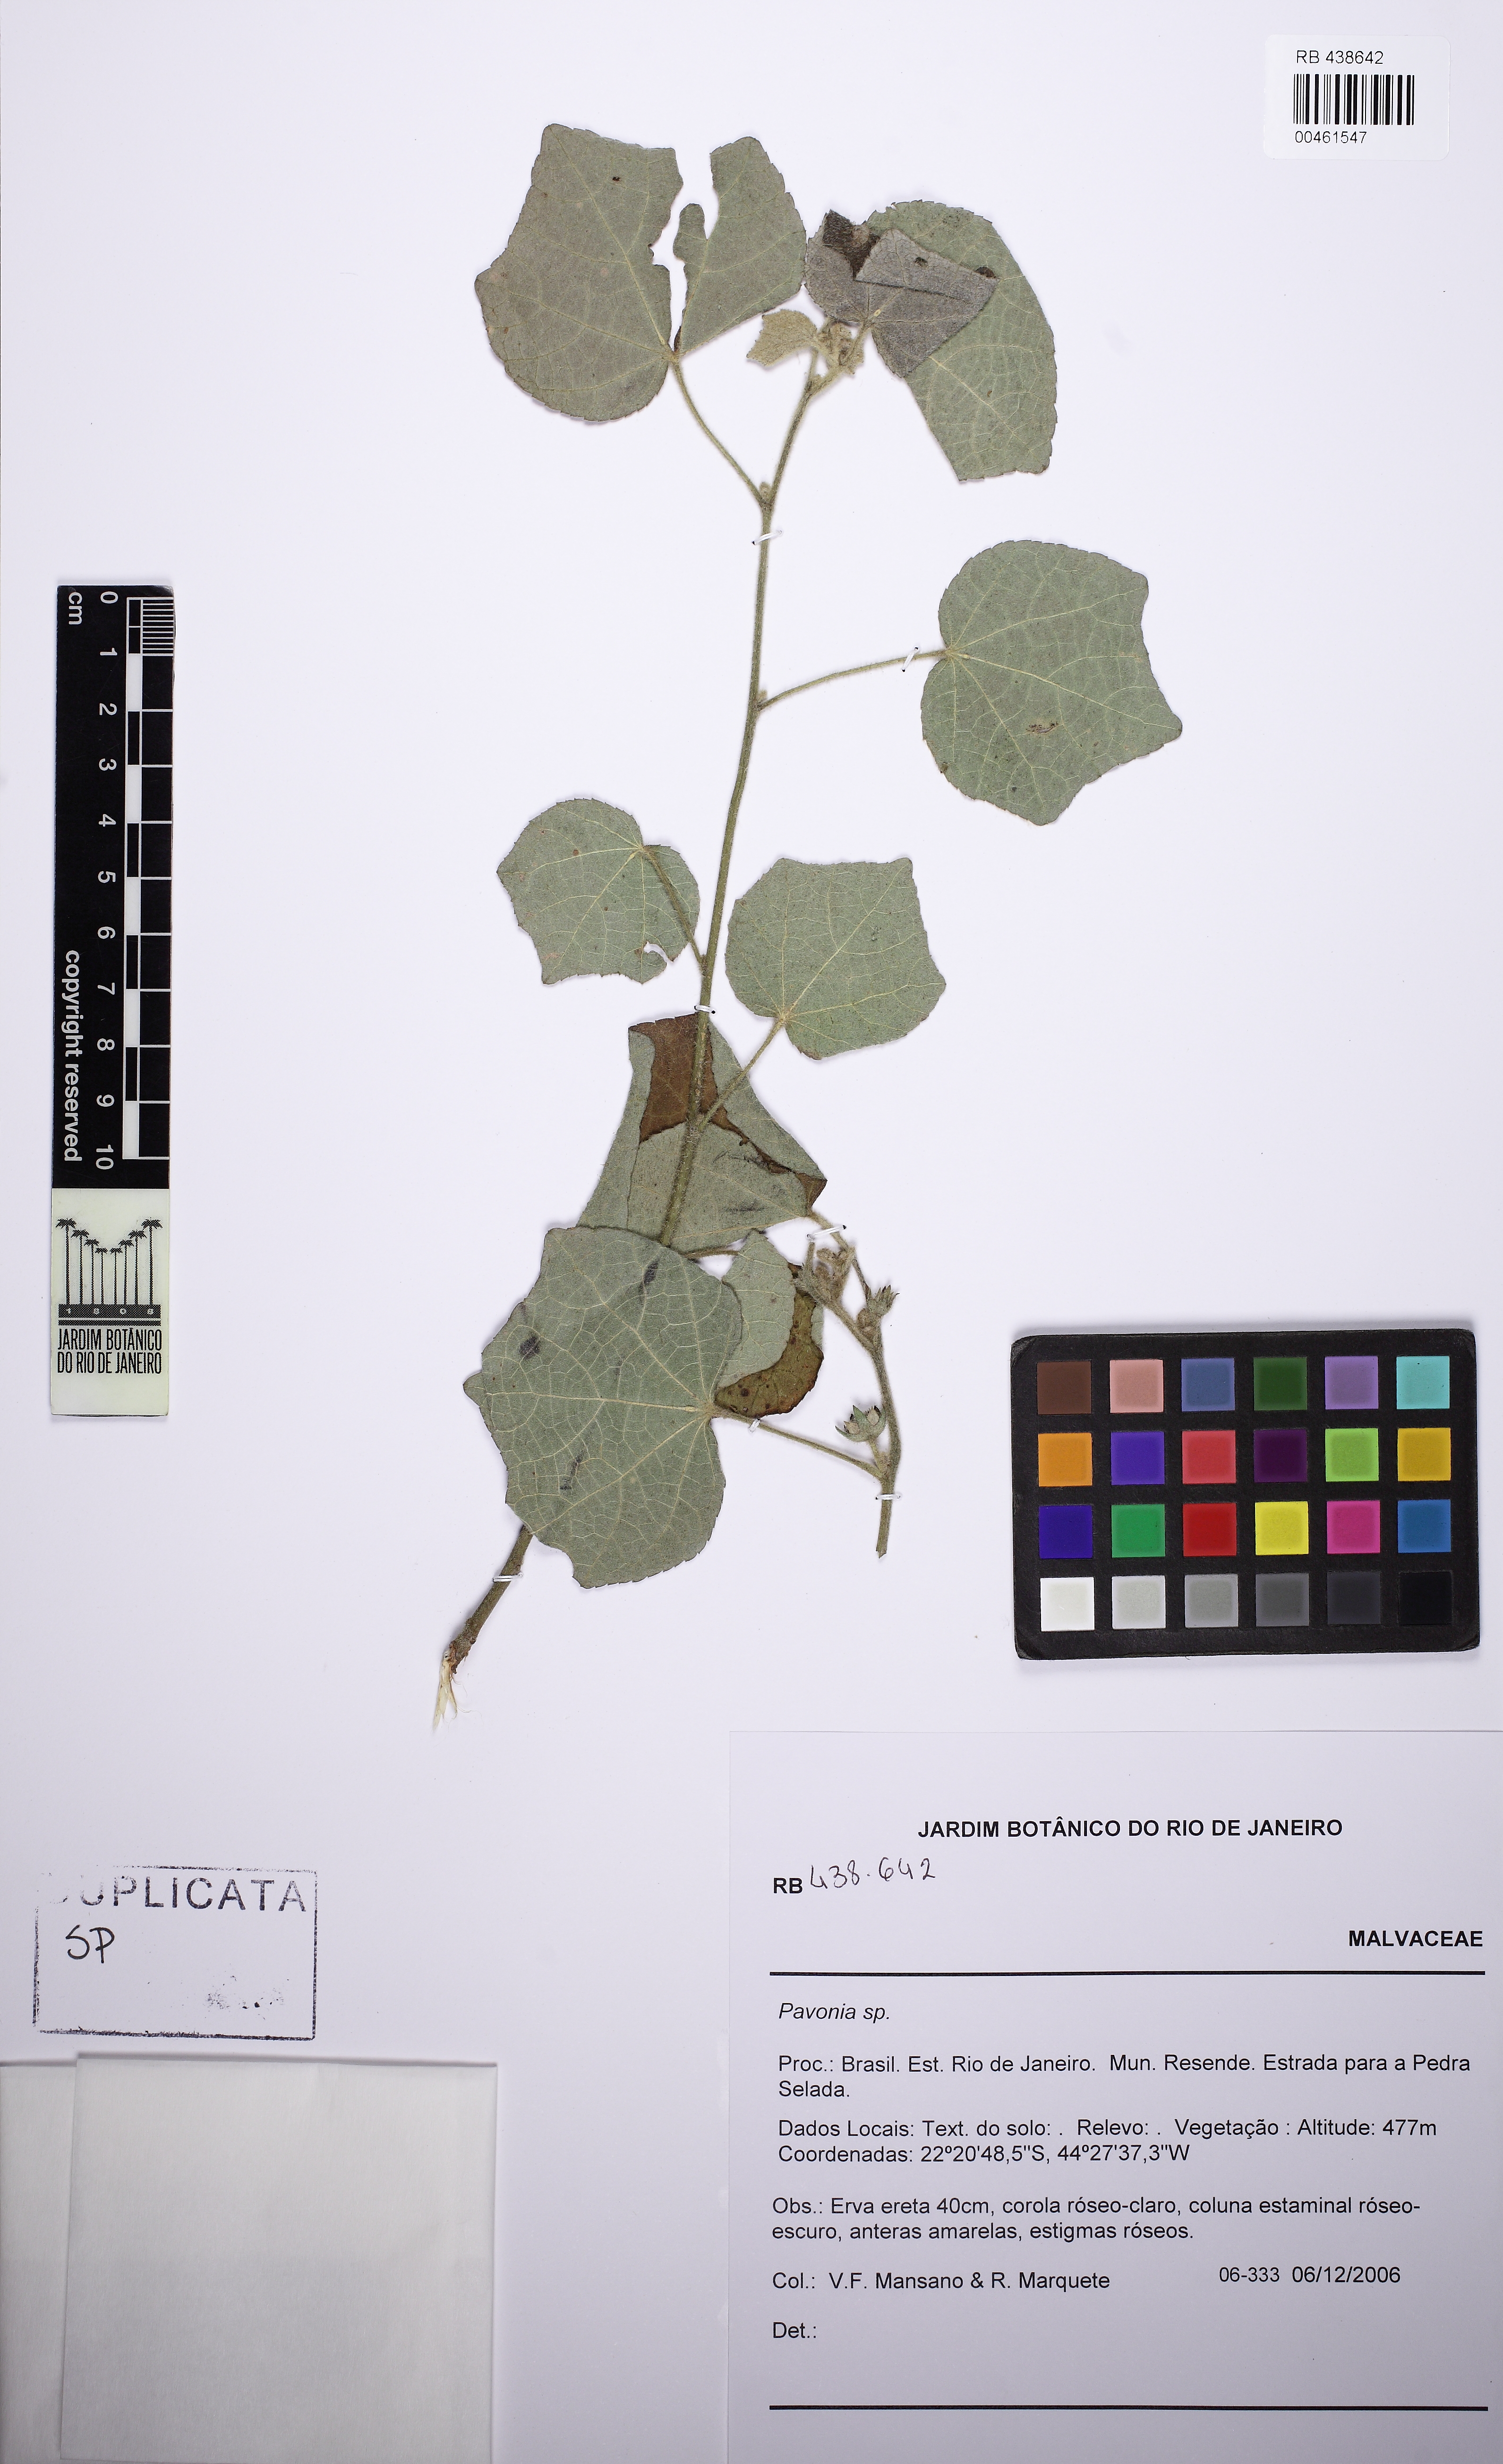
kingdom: Plantae
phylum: Tracheophyta
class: Magnoliopsida
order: Malvales
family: Malvaceae
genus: Pavonia
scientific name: Pavonia
